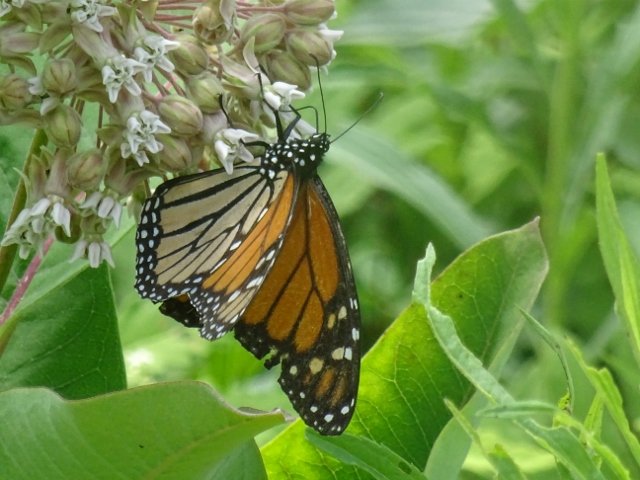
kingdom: Animalia
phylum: Arthropoda
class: Insecta
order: Lepidoptera
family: Nymphalidae
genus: Danaus
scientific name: Danaus plexippus
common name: Monarch
